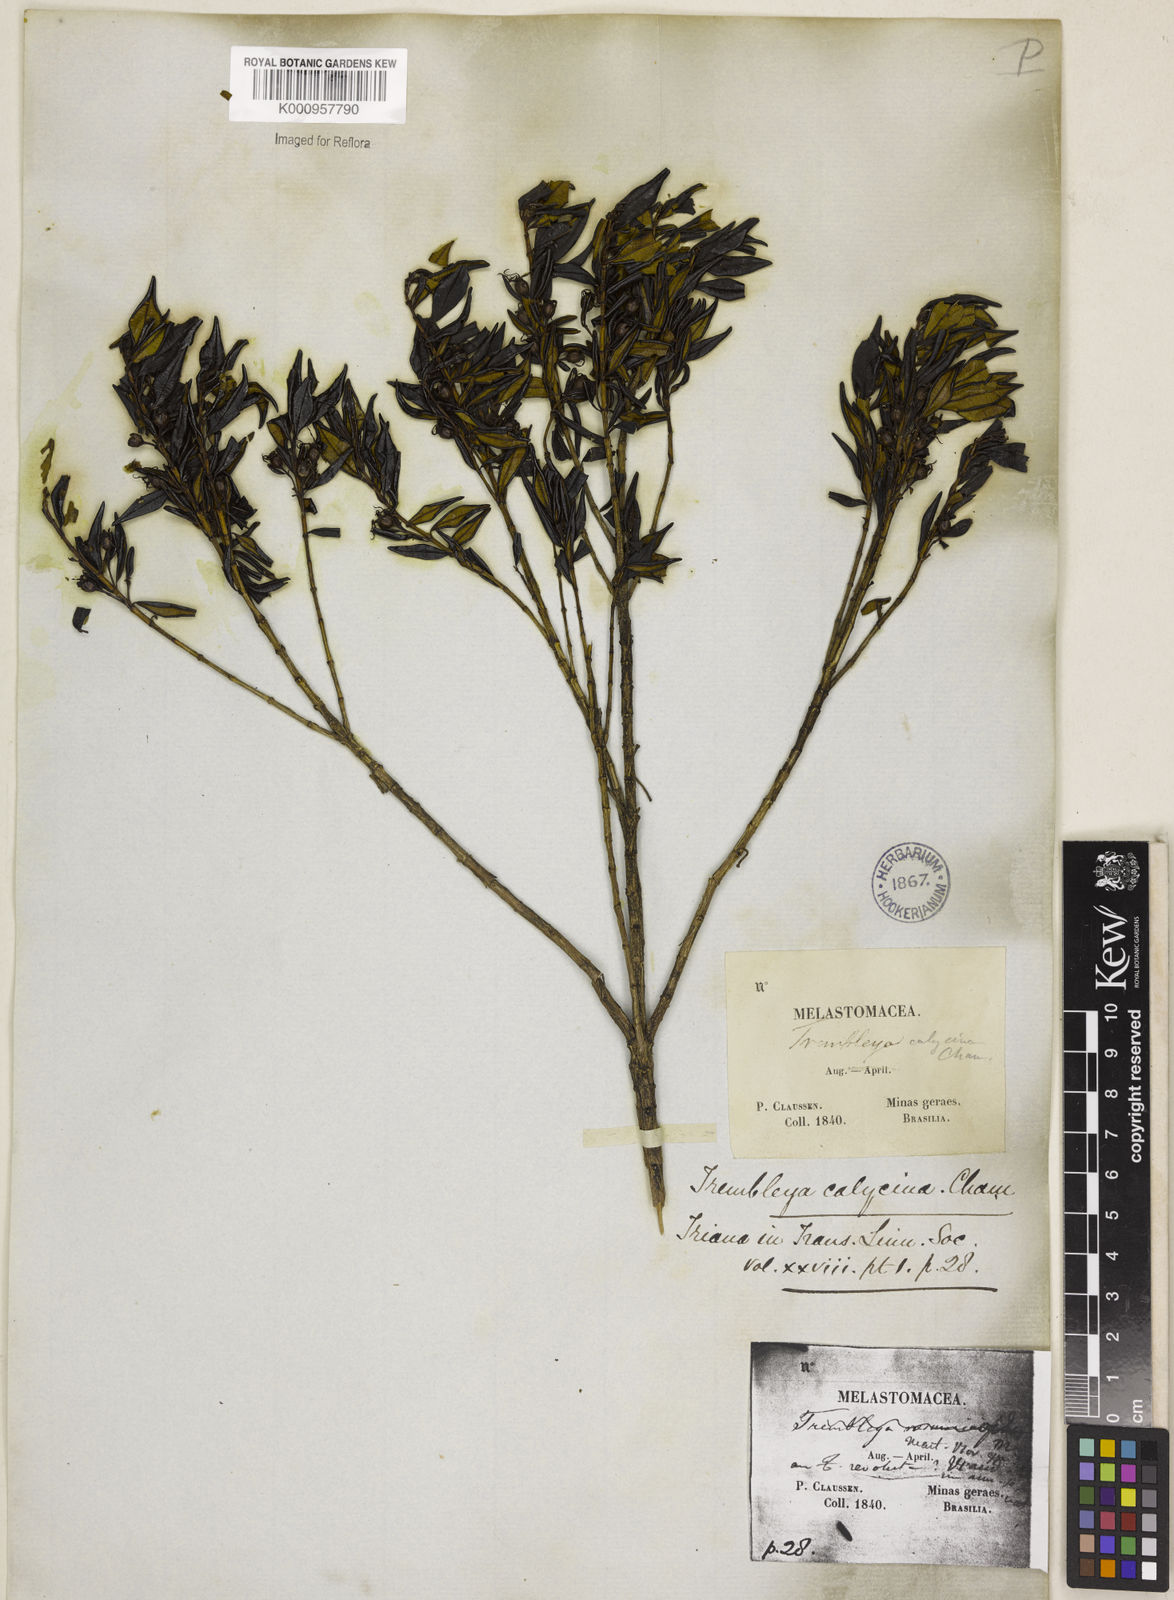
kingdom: Plantae
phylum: Tracheophyta
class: Magnoliopsida
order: Myrtales
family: Melastomataceae
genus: Microlicia
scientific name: Microlicia calycina
